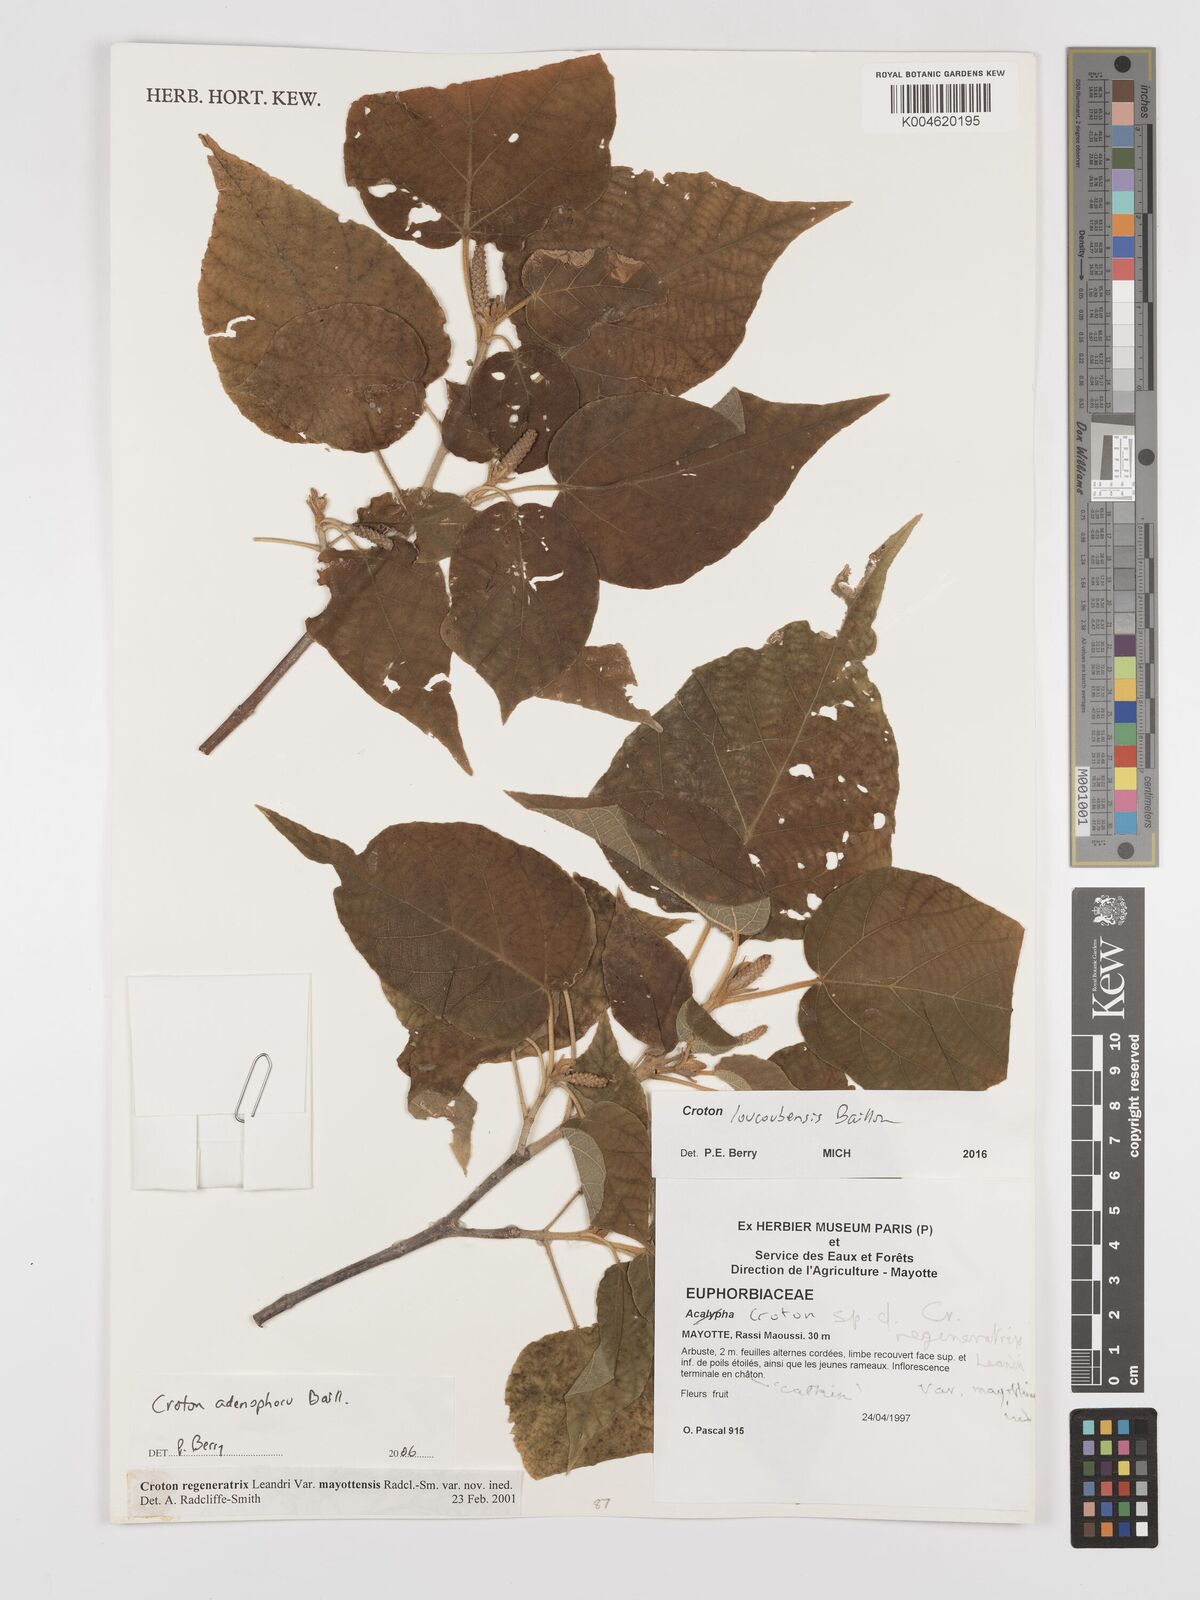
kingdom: Plantae
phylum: Tracheophyta
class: Magnoliopsida
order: Malpighiales
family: Euphorbiaceae
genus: Croton
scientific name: Croton loucoubensis
